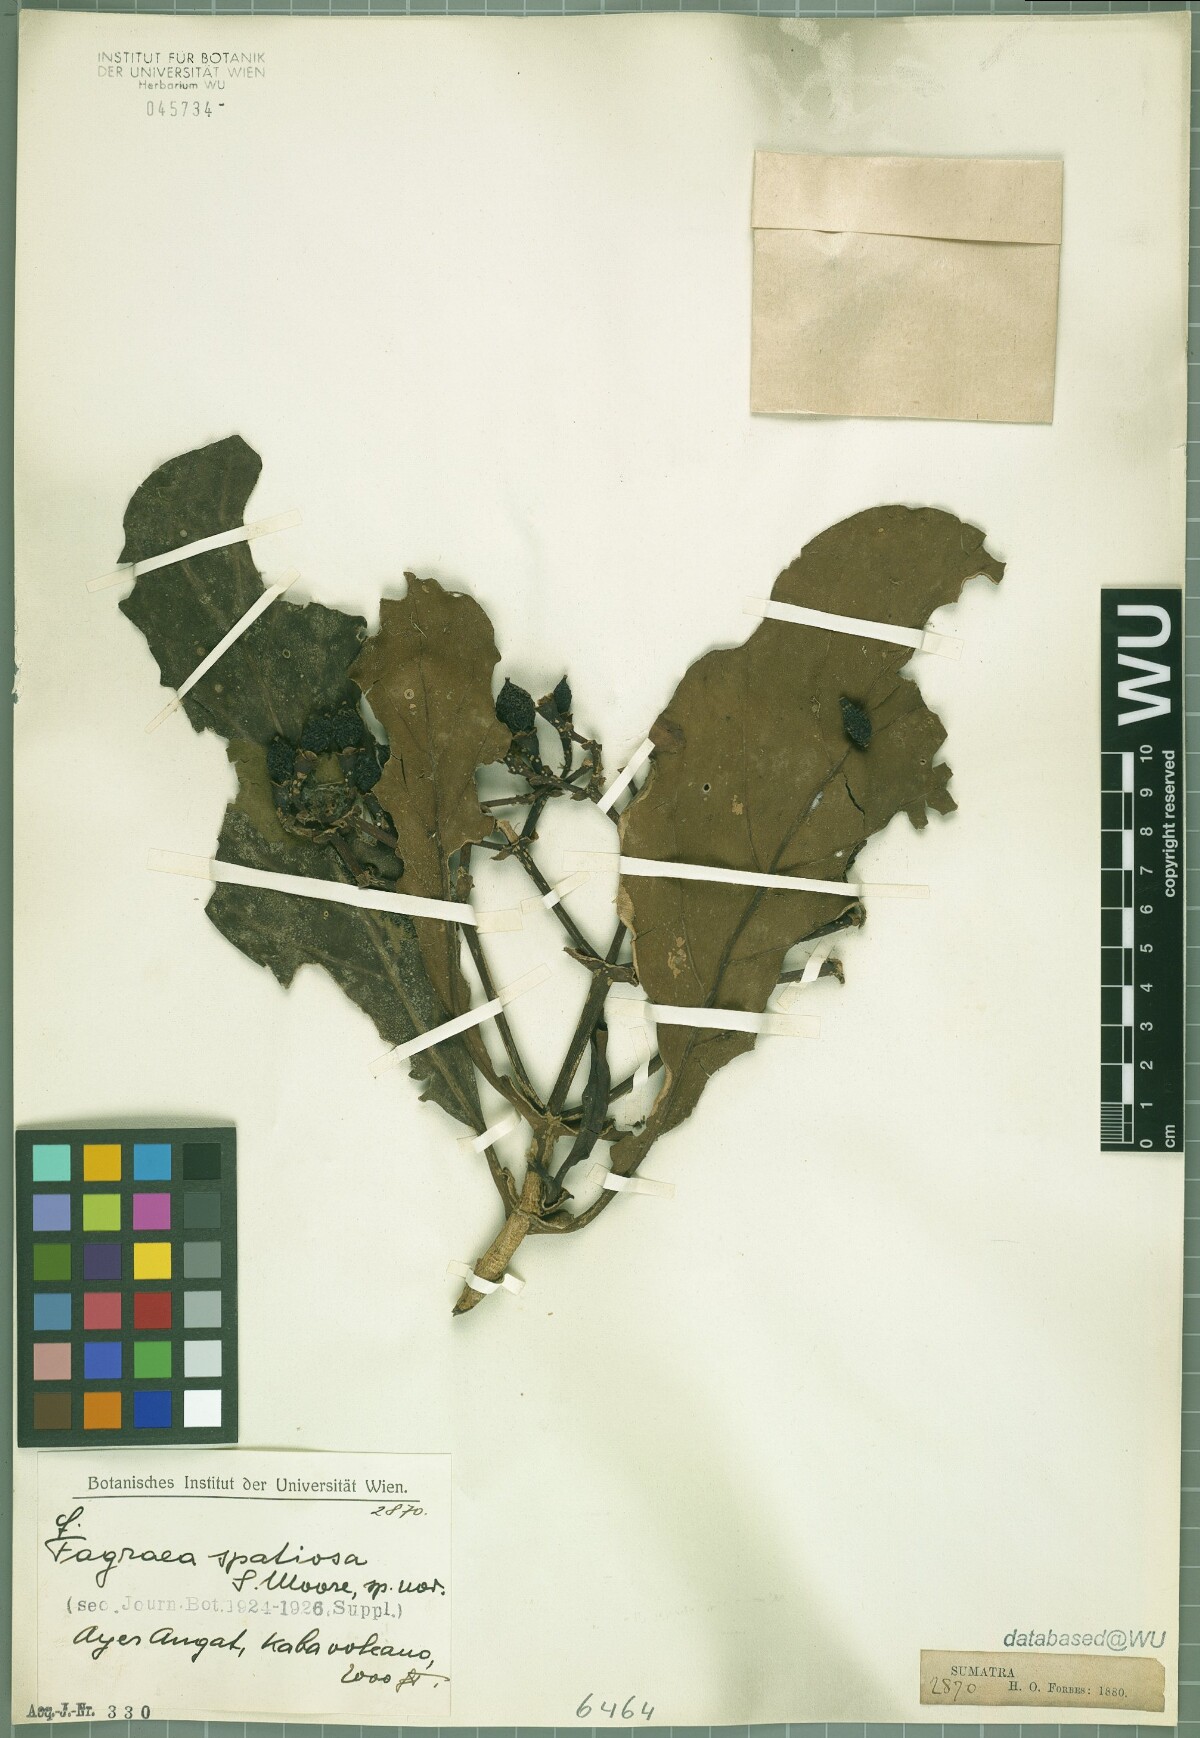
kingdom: Plantae
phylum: Tracheophyta
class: Magnoliopsida
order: Gentianales
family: Gentianaceae
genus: Fagraea
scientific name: Fagraea blumei
